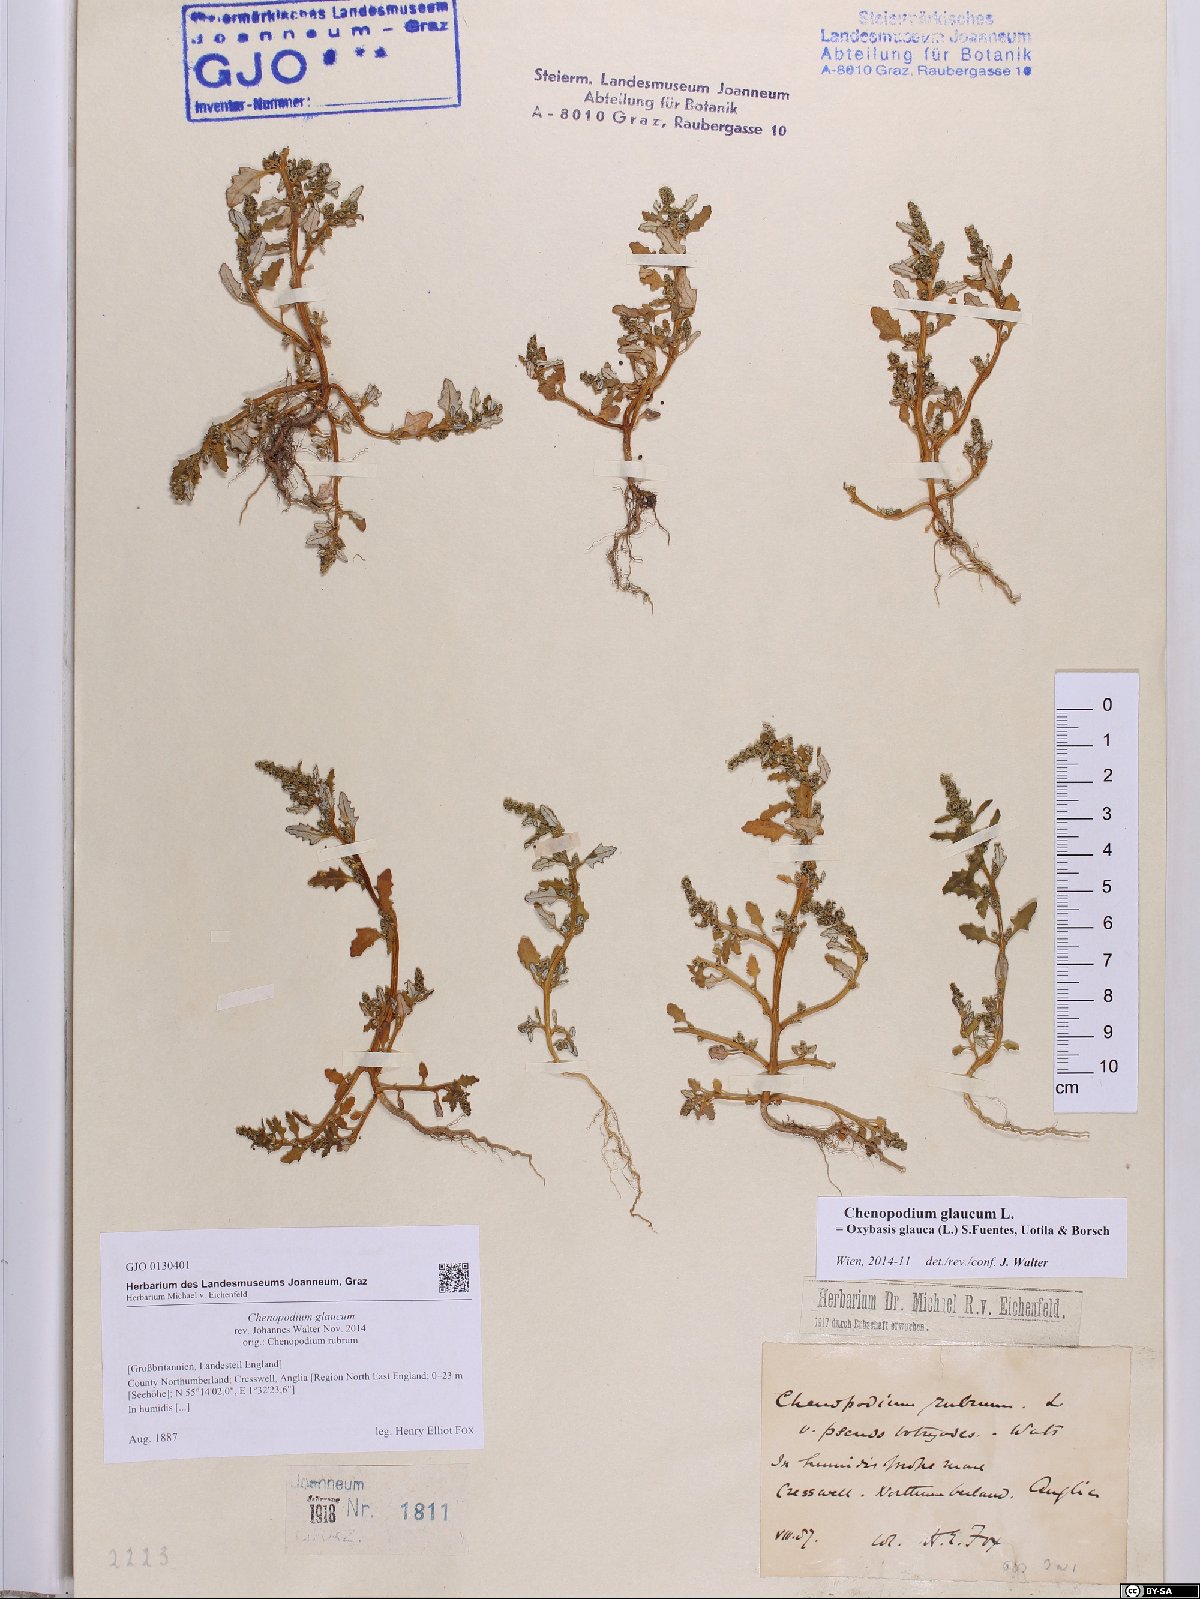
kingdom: Plantae
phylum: Tracheophyta
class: Magnoliopsida
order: Caryophyllales
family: Amaranthaceae
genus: Oxybasis
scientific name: Oxybasis glauca
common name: Glaucous goosefoot
